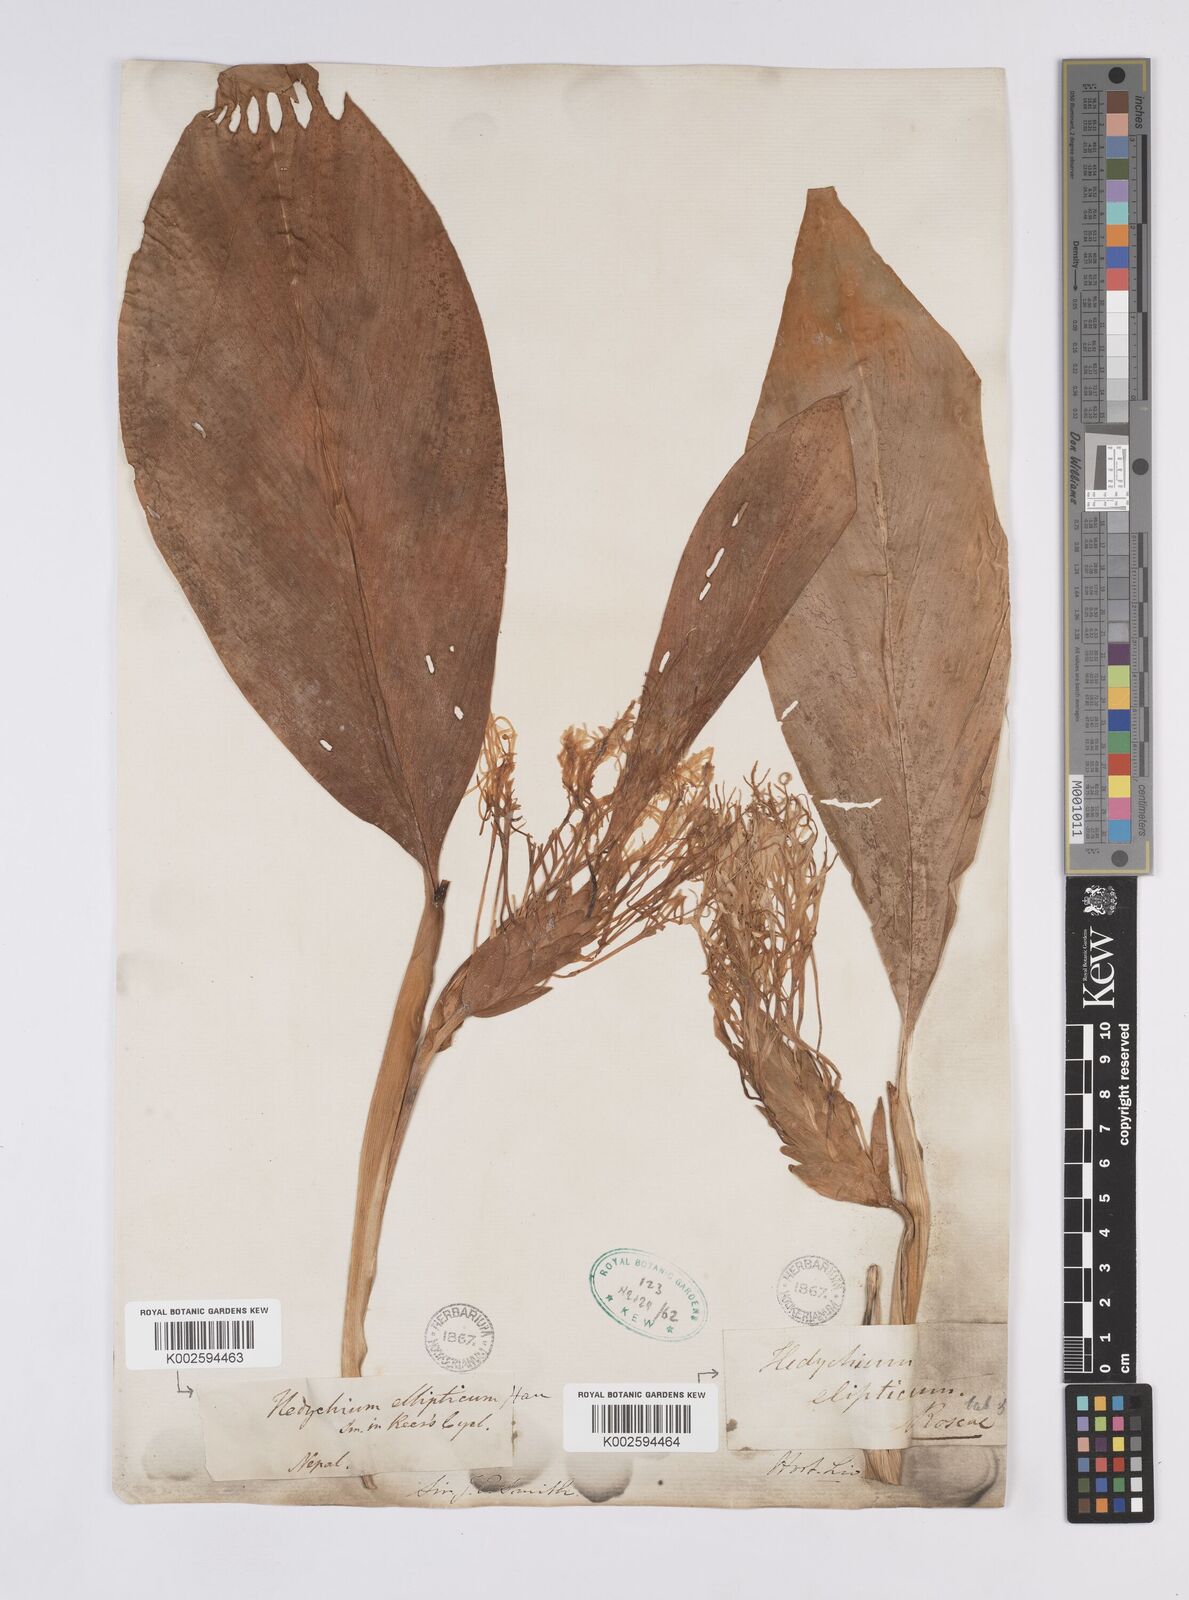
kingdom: Plantae
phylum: Tracheophyta
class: Liliopsida
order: Zingiberales
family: Zingiberaceae
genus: Hedychium
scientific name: Hedychium ellipticum
